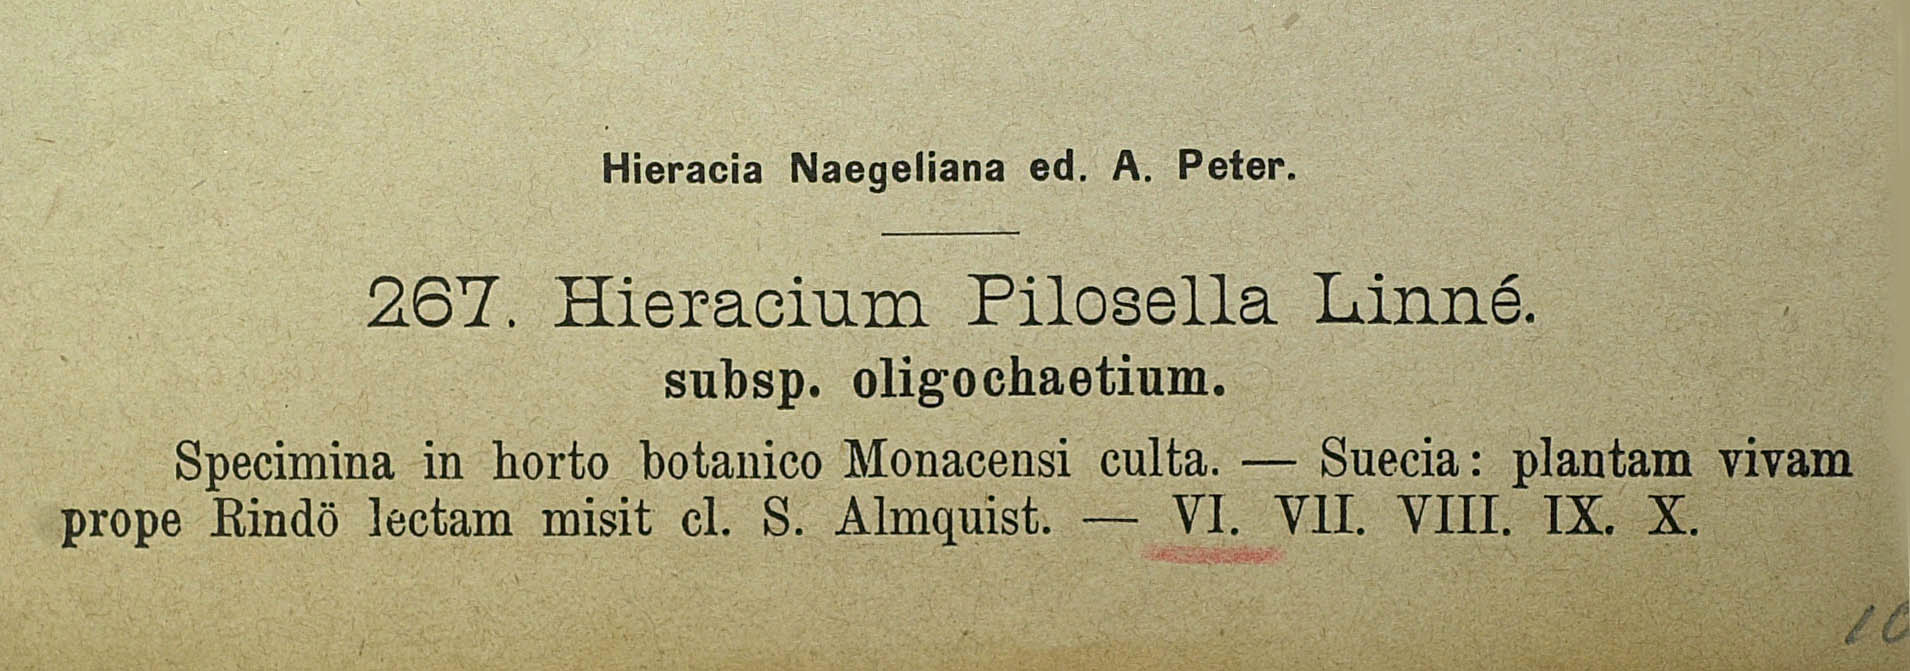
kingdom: Plantae
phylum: Tracheophyta
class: Magnoliopsida
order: Asterales
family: Asteraceae
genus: Pilosella
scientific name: Pilosella officinarum
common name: Mouse-ear hawkweed
